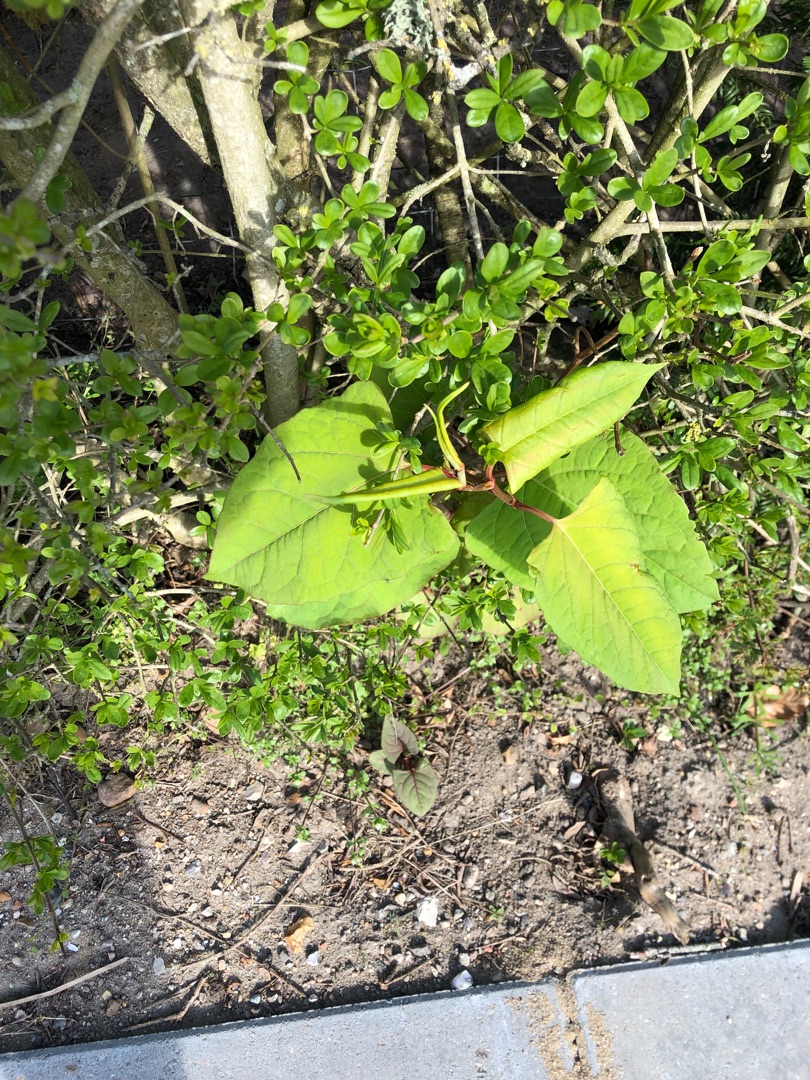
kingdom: Plantae
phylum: Tracheophyta
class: Magnoliopsida
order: Caryophyllales
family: Polygonaceae
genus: Reynoutria
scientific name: Reynoutria japonica
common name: Japan-pileurt
